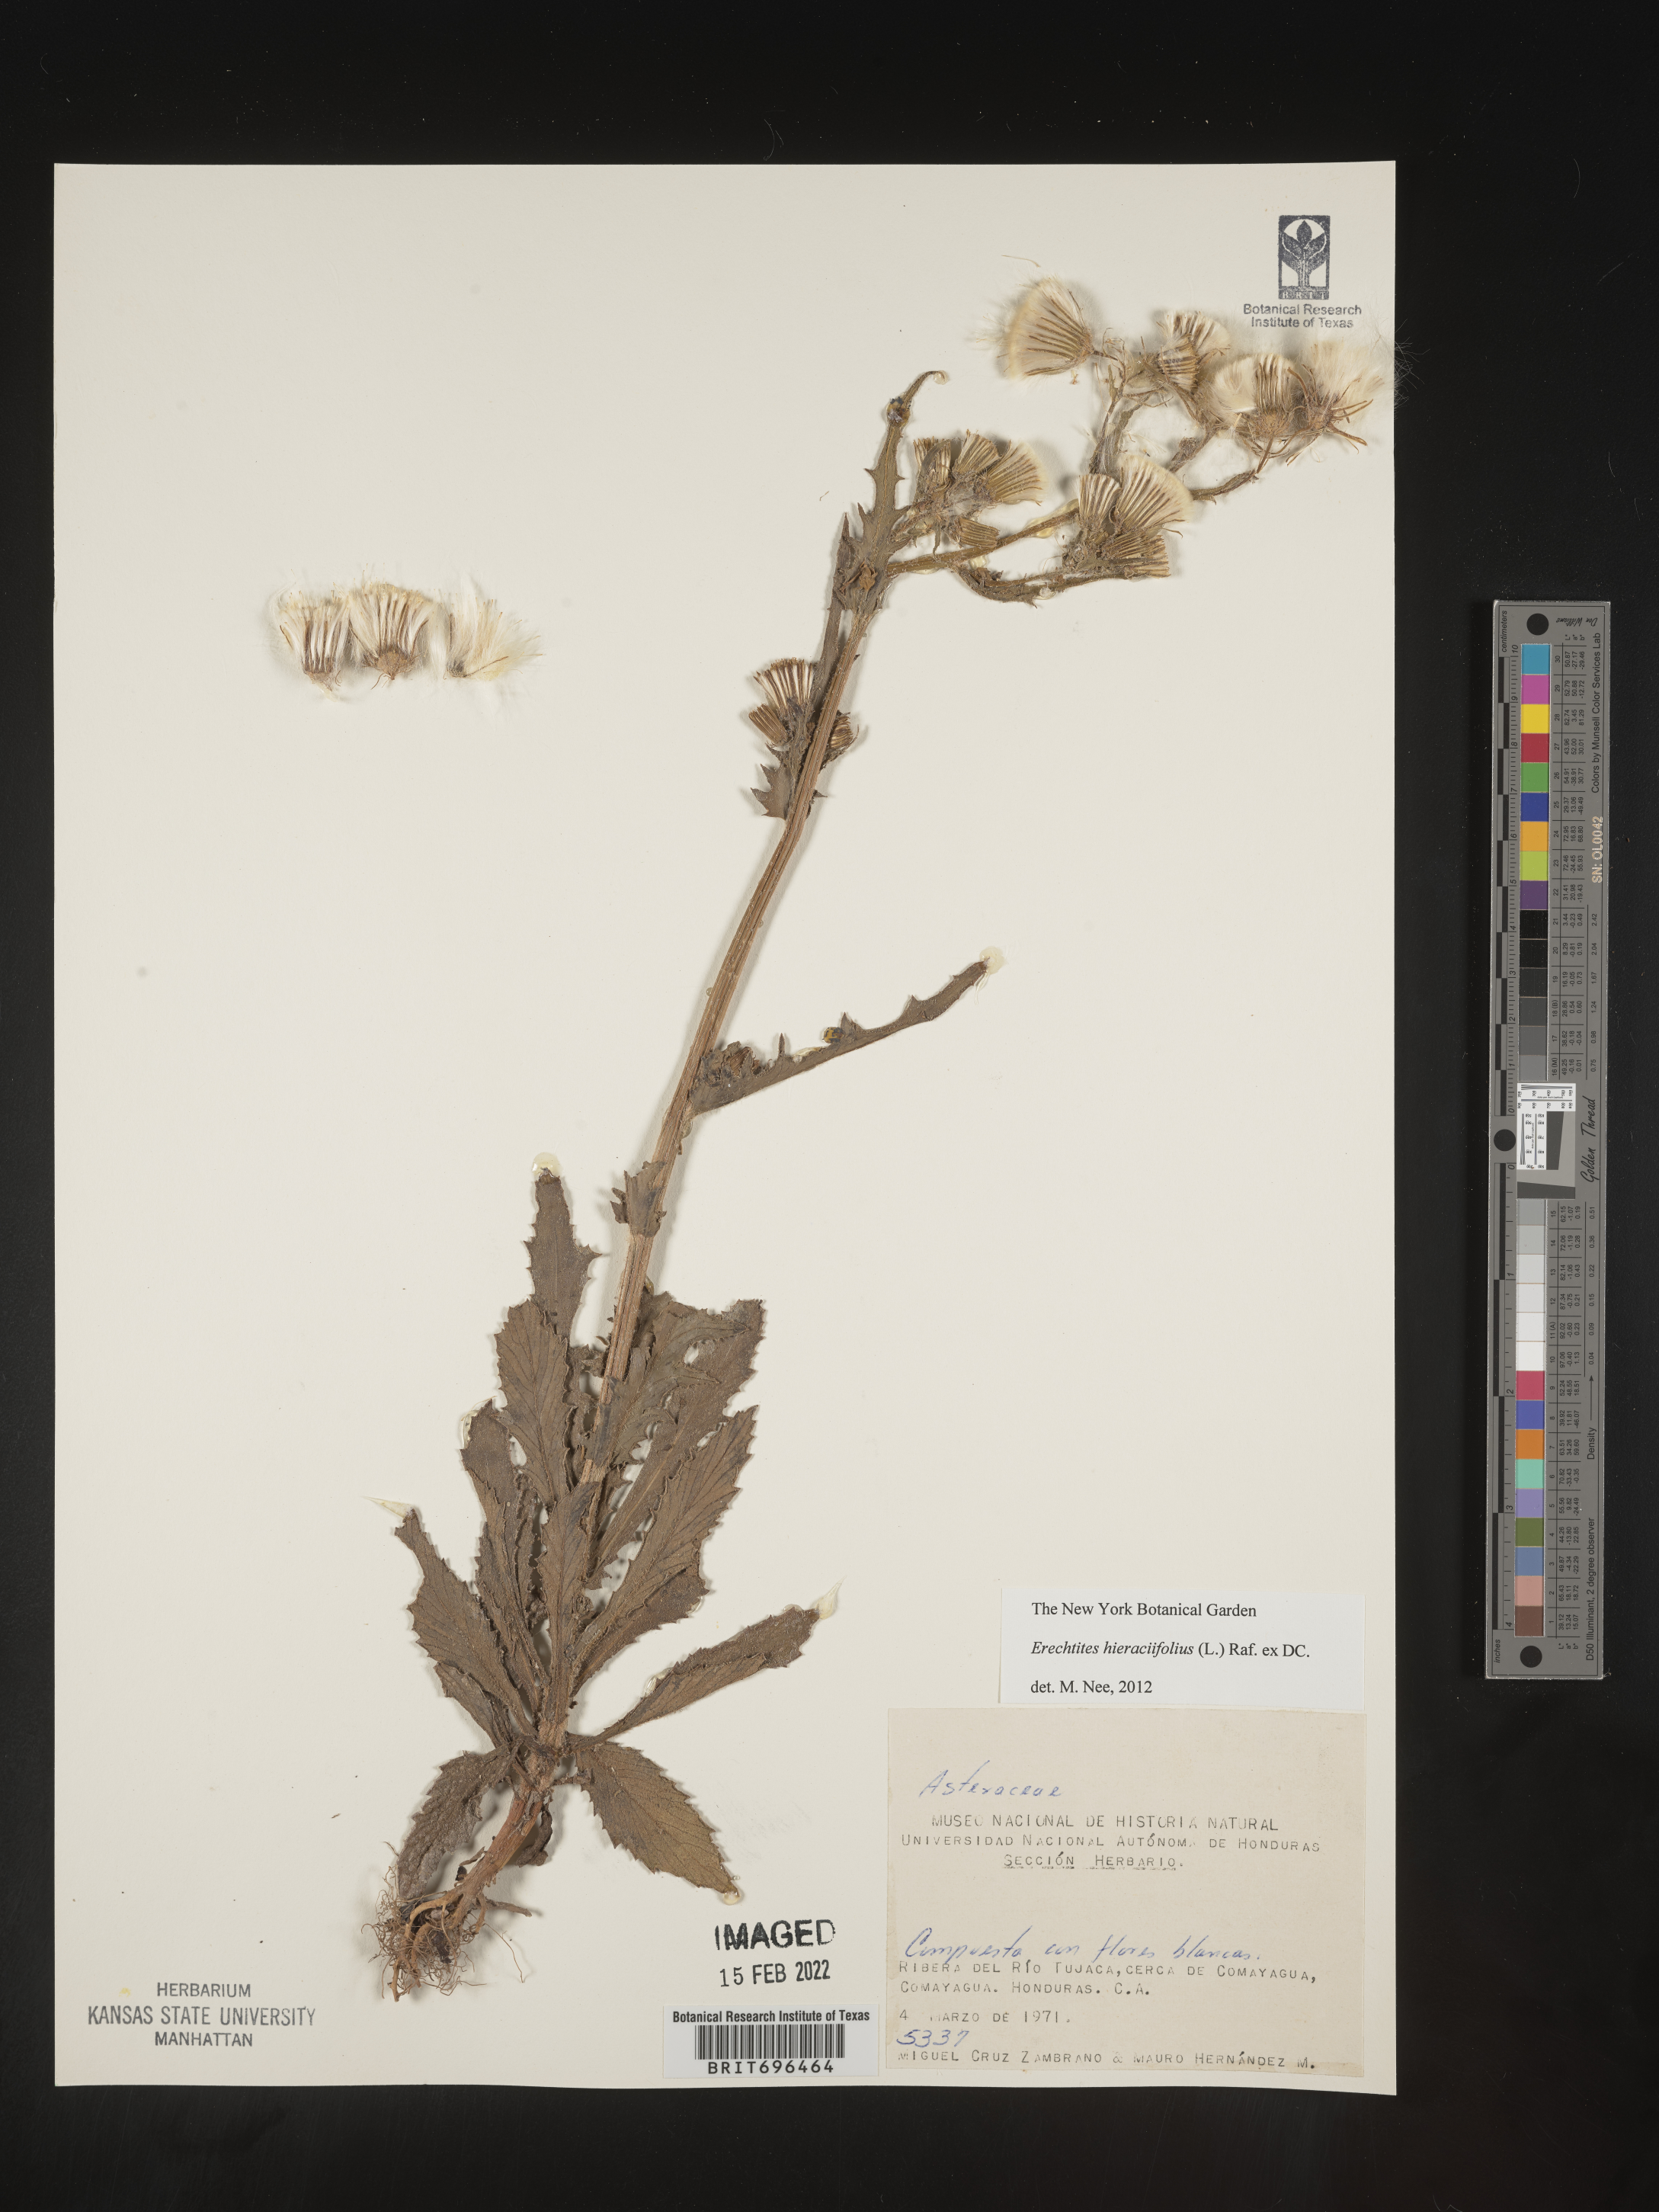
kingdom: Plantae
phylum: Tracheophyta
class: Magnoliopsida
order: Asterales
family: Asteraceae
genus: Erechtites
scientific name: Erechtites
